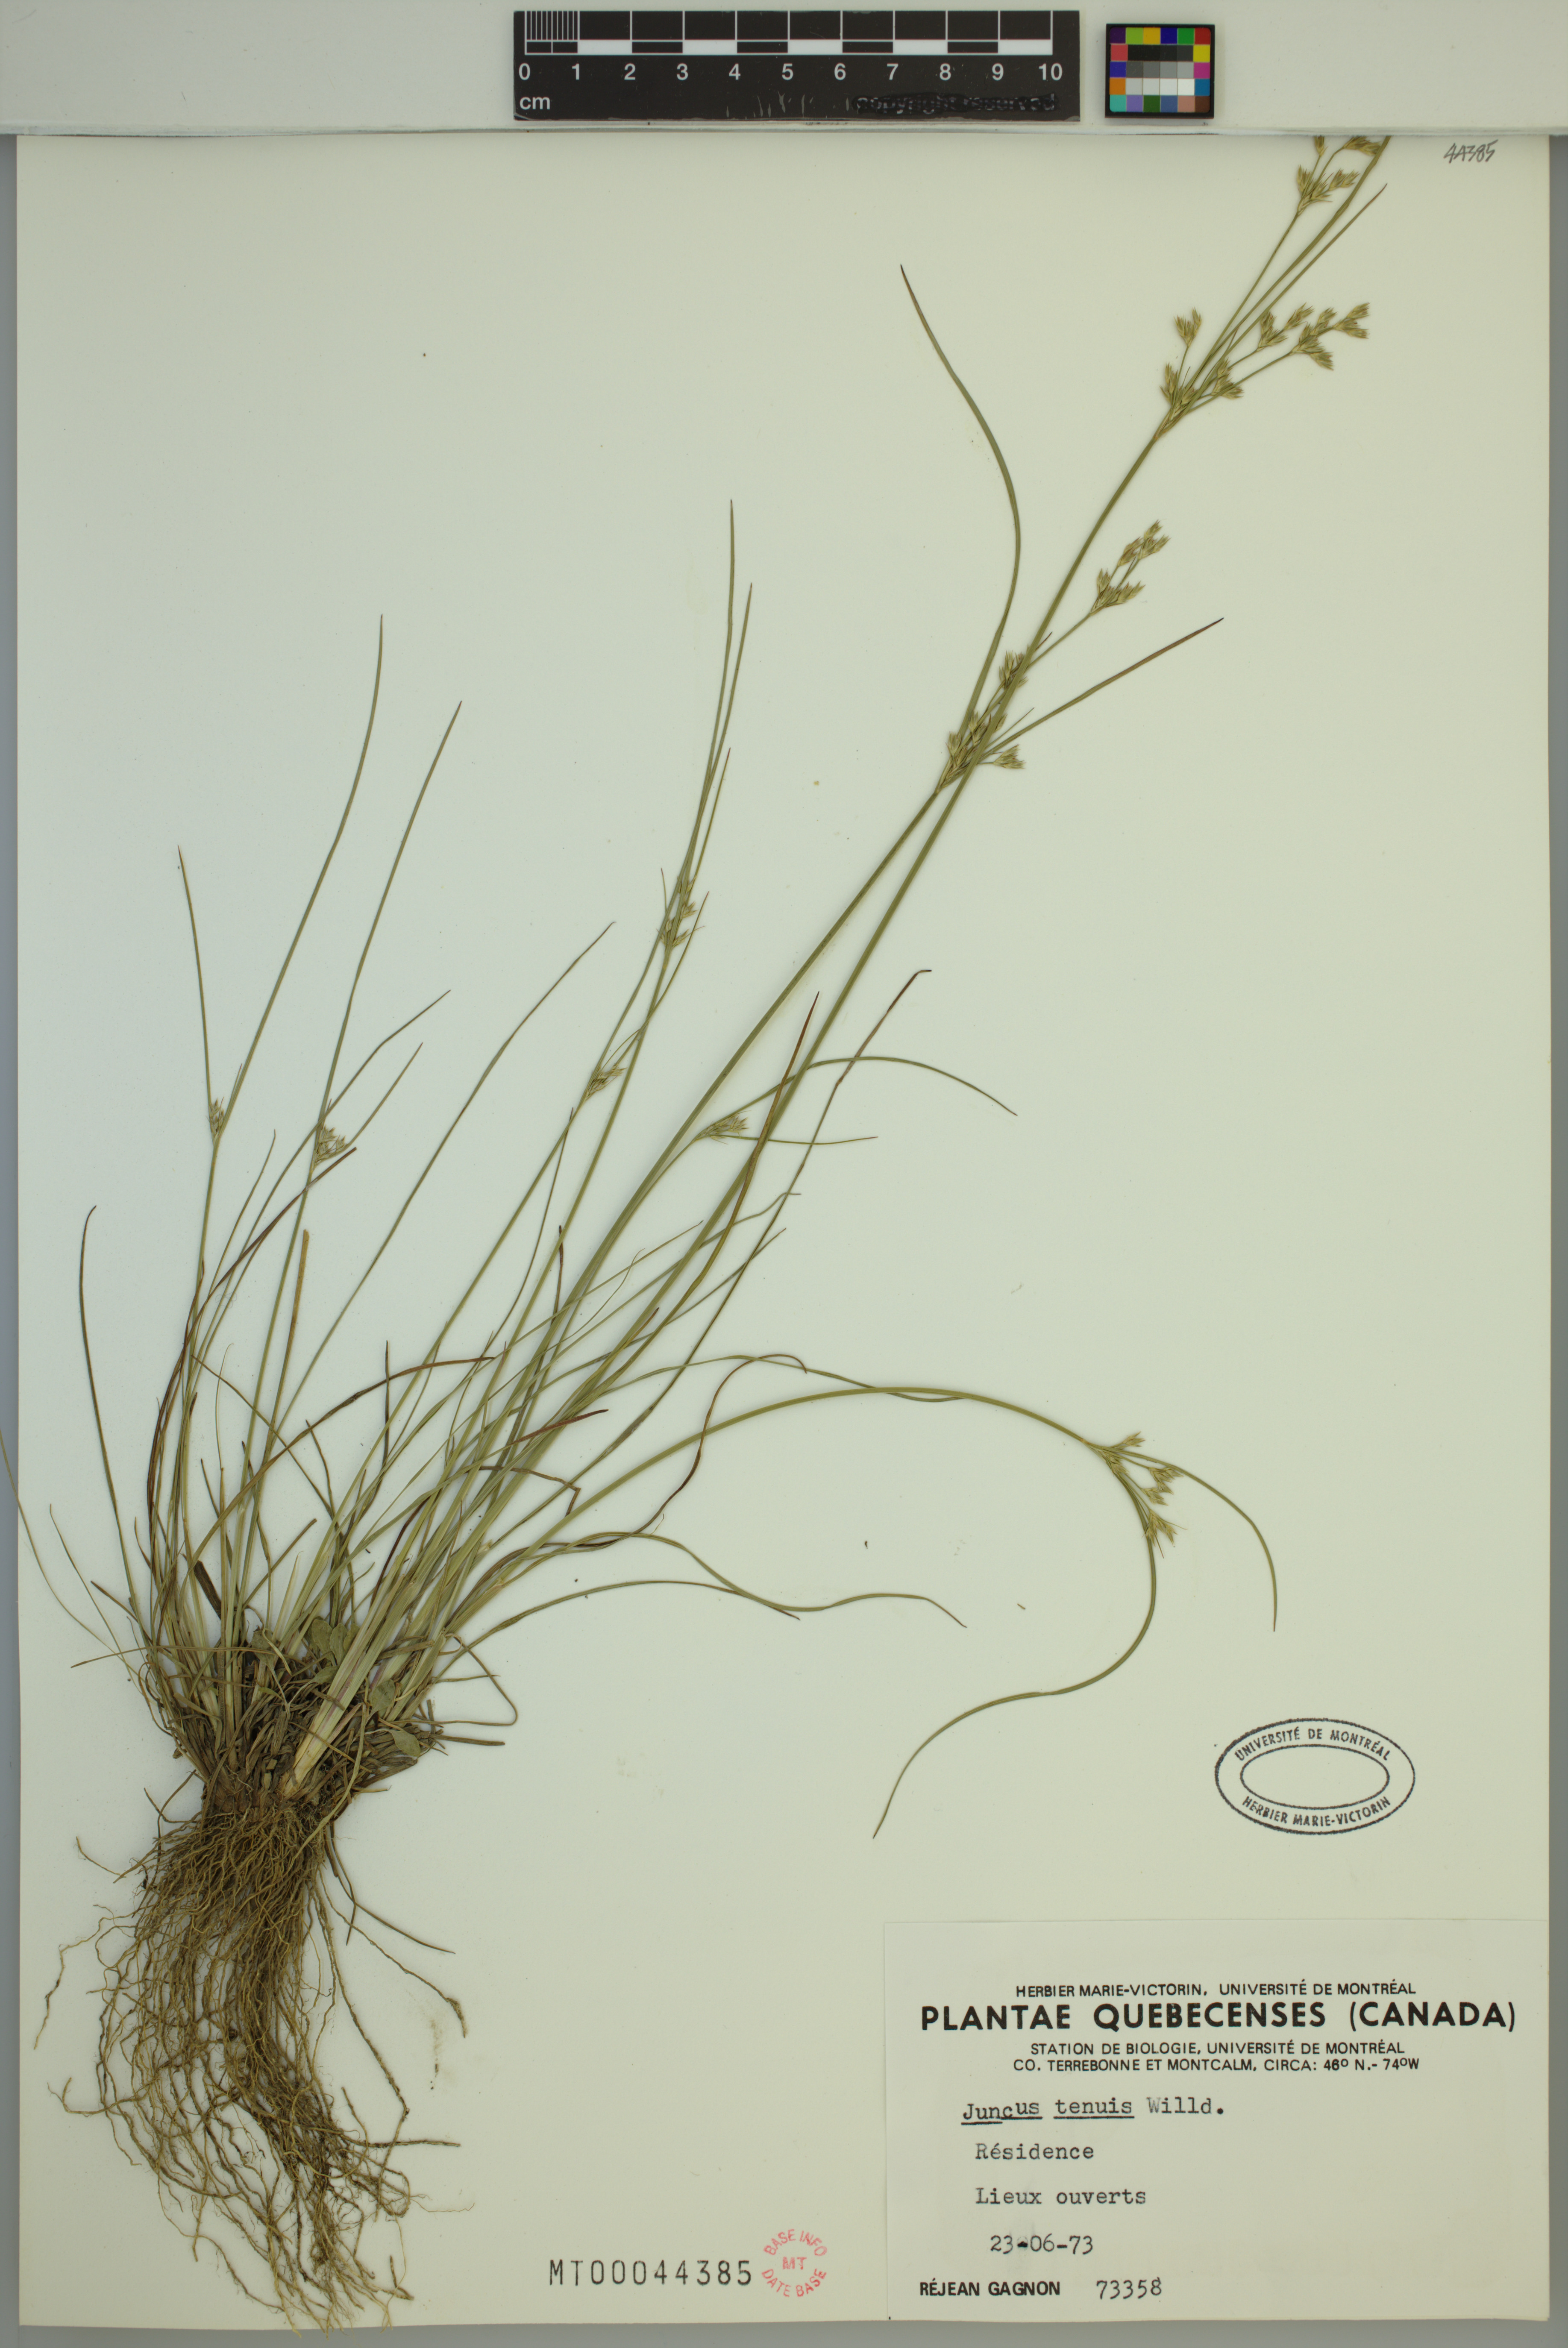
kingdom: Plantae
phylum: Tracheophyta
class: Liliopsida
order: Poales
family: Juncaceae
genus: Juncus
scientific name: Juncus tenuis
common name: Slender rush
